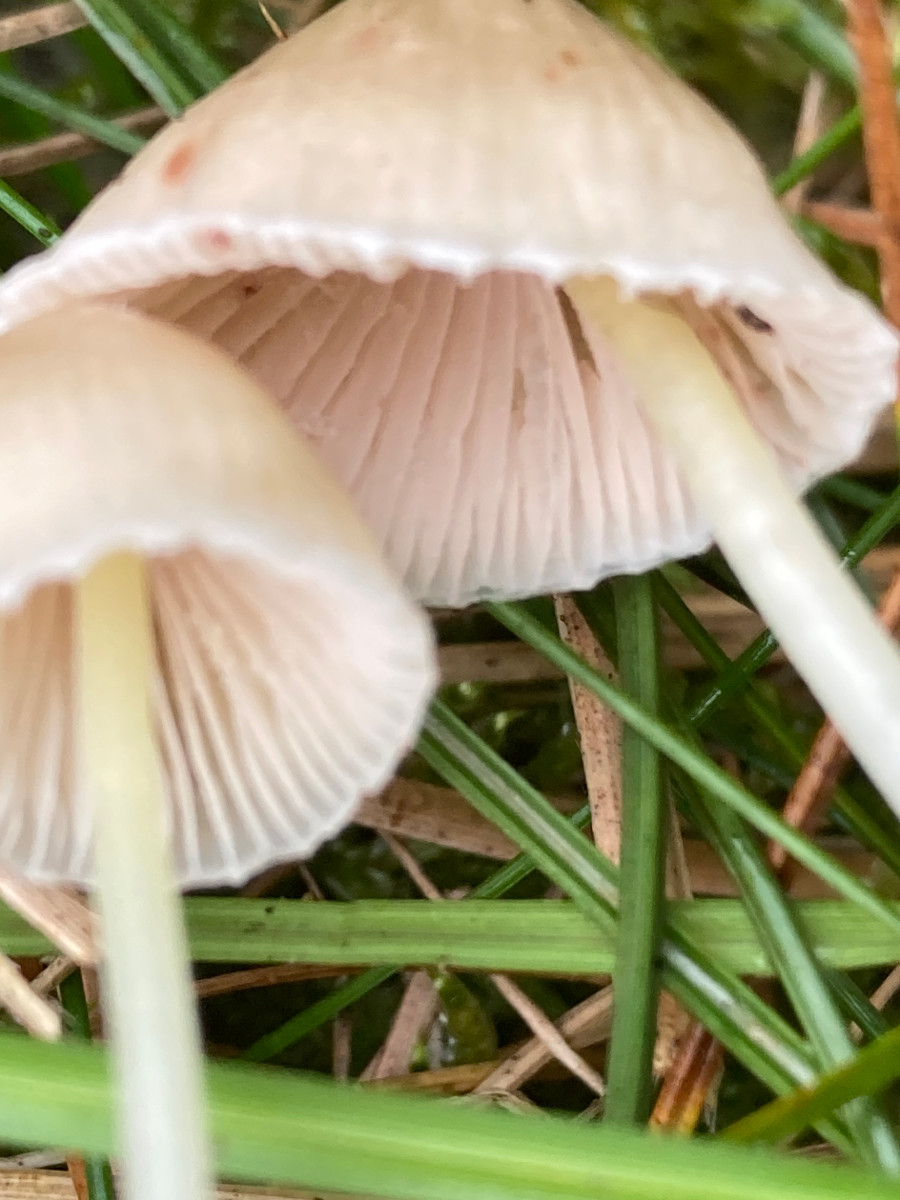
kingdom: Fungi
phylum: Basidiomycota
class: Agaricomycetes
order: Agaricales
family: Mycenaceae
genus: Mycena
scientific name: Mycena epipterygia
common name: gulstokket huesvamp
